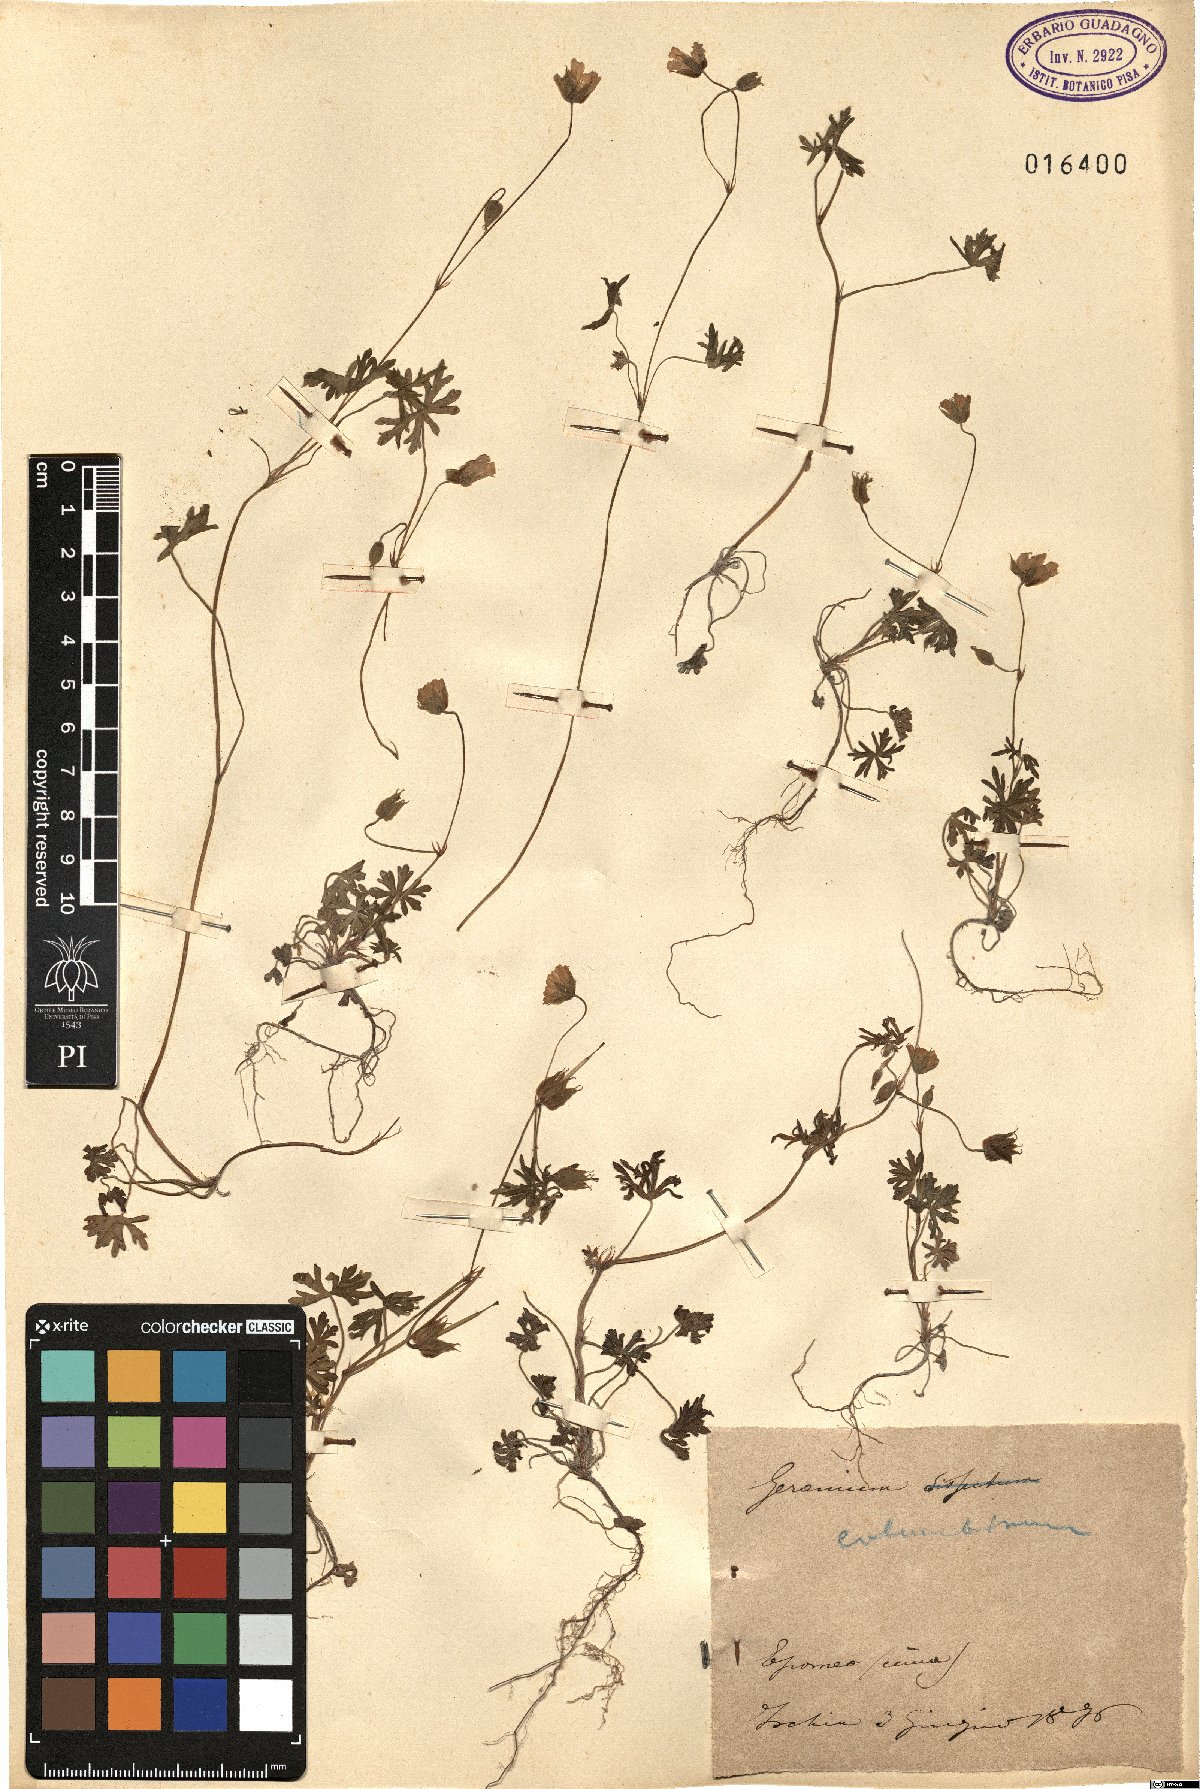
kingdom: Plantae
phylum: Tracheophyta
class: Magnoliopsida
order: Geraniales
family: Geraniaceae
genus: Geranium
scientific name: Geranium columbinum
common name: Long-stalked crane's-bill
